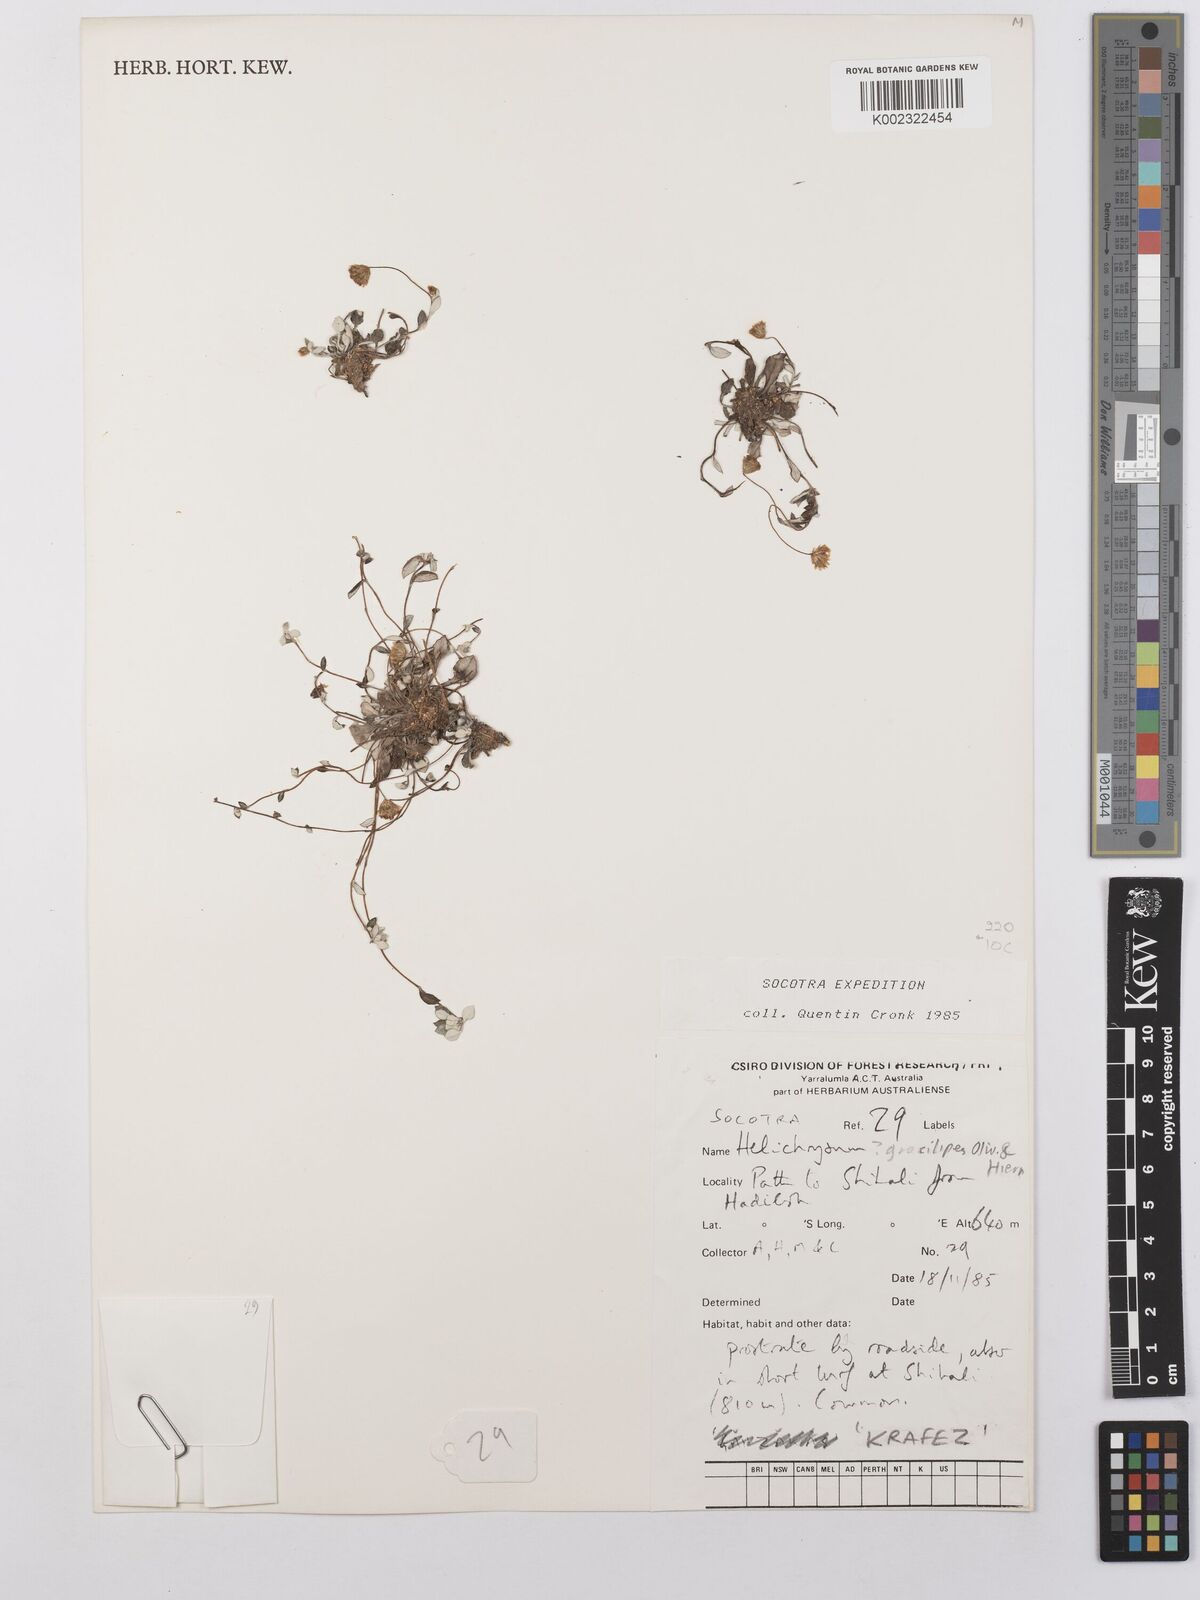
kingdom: Plantae
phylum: Tracheophyta
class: Magnoliopsida
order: Asterales
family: Asteraceae
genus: Libinhania
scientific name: Libinhania gracilipes
